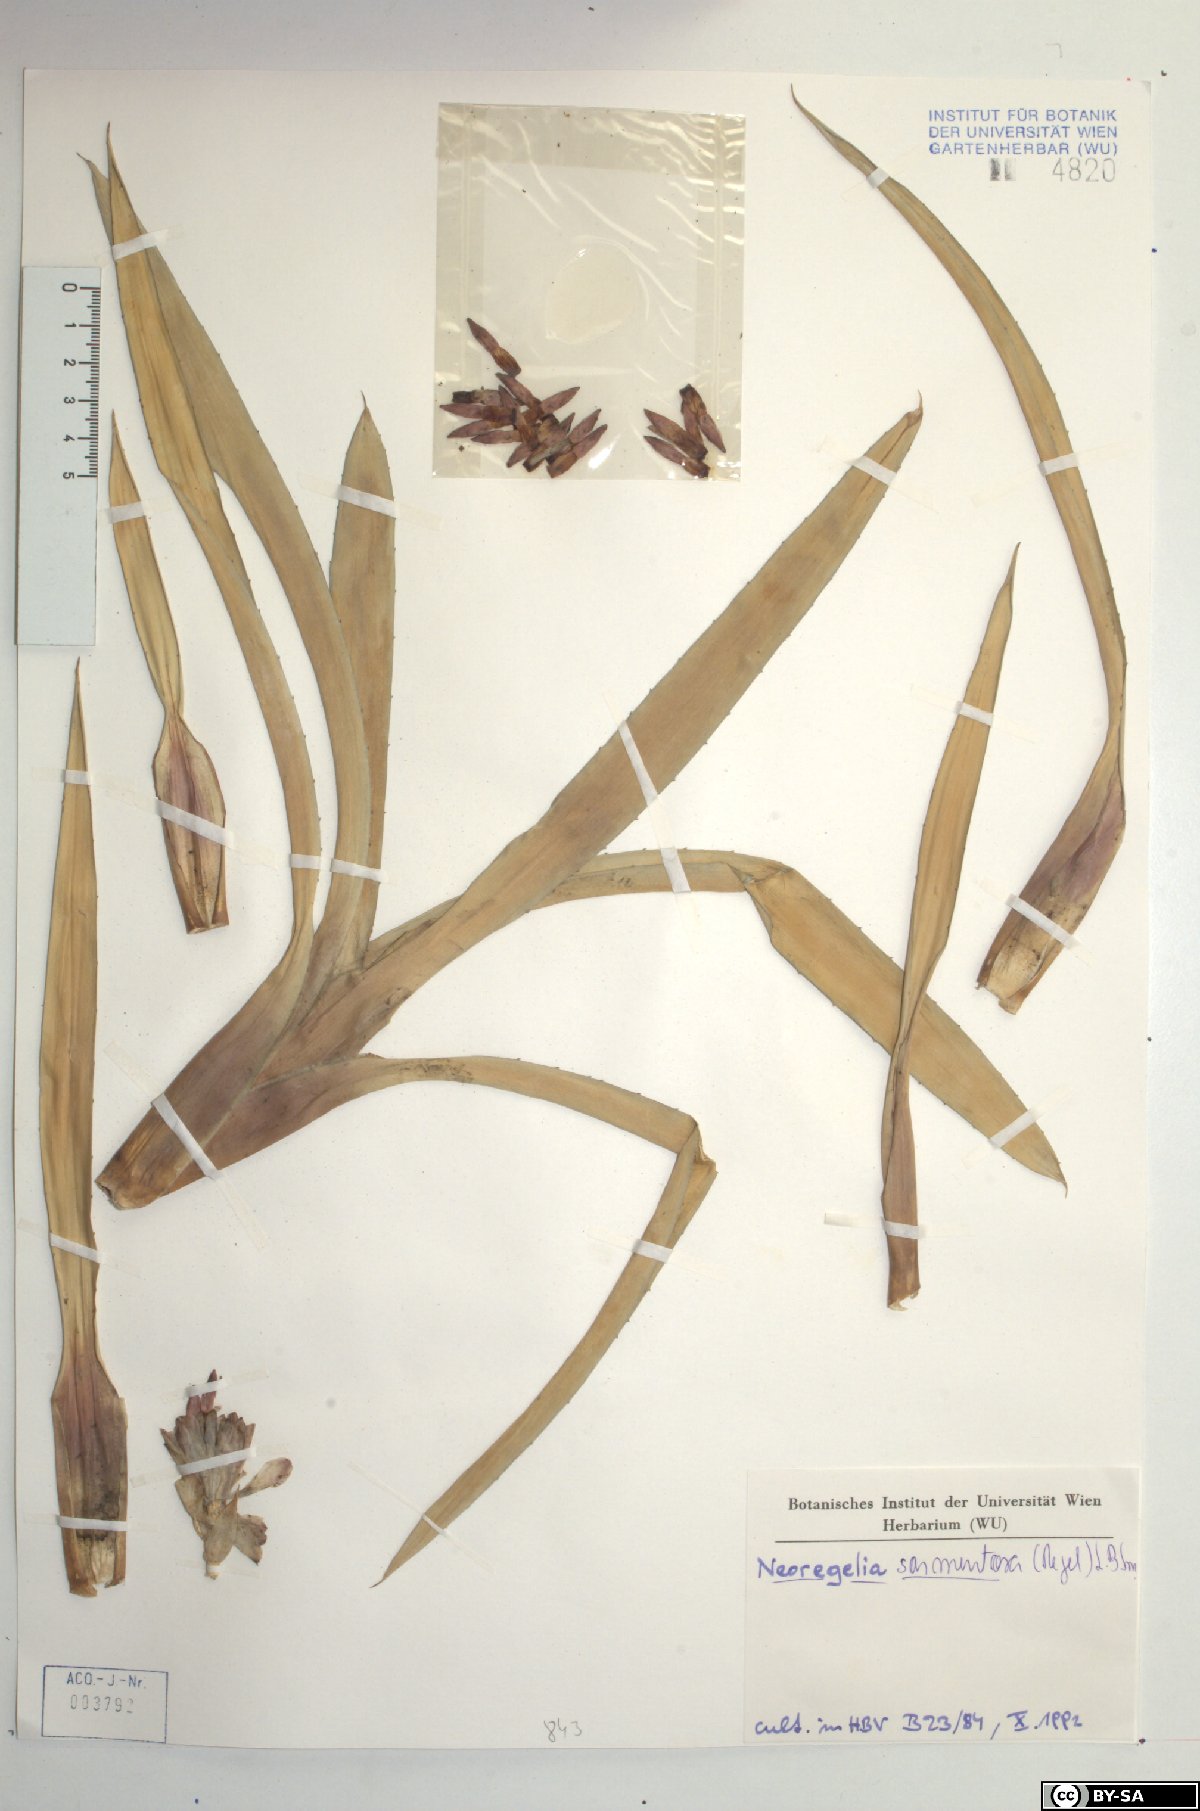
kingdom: Plantae
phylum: Tracheophyta
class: Liliopsida
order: Poales
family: Bromeliaceae
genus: Neoregelia
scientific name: Neoregelia sarmentosa
